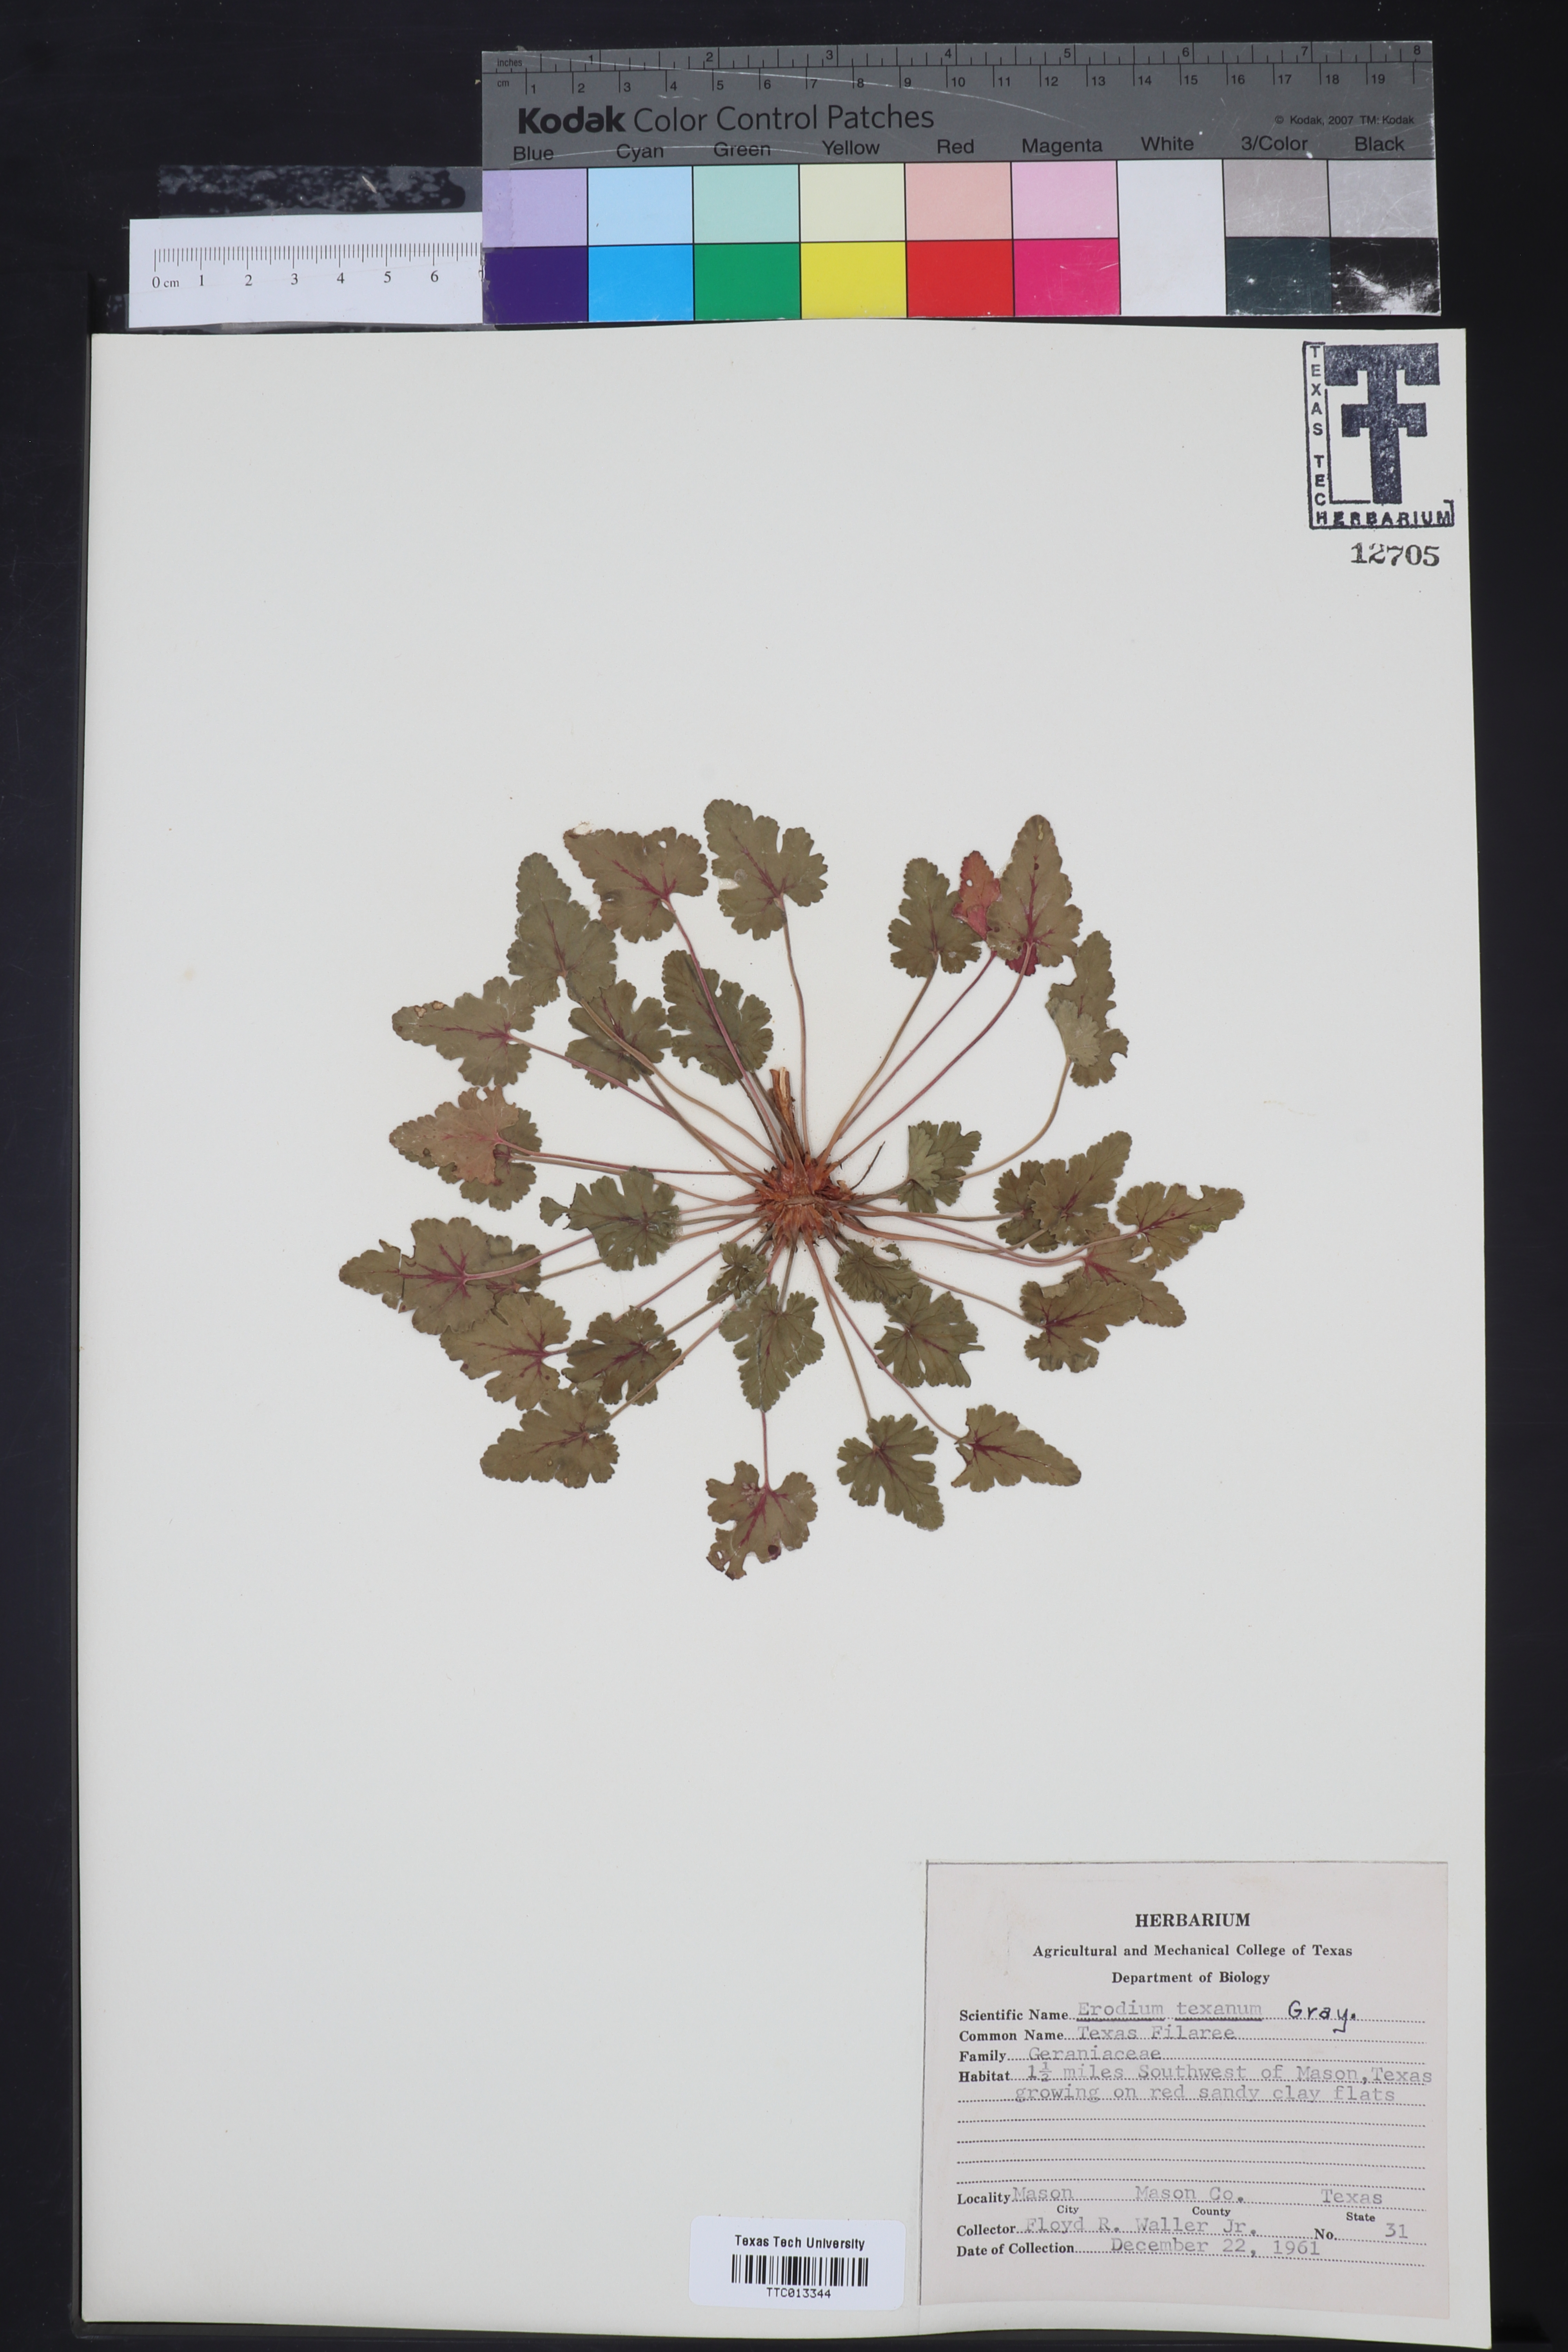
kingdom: Plantae
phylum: Tracheophyta
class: Magnoliopsida
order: Geraniales
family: Geraniaceae
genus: Erodium
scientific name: Erodium texanum
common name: Texas stork's-bill
